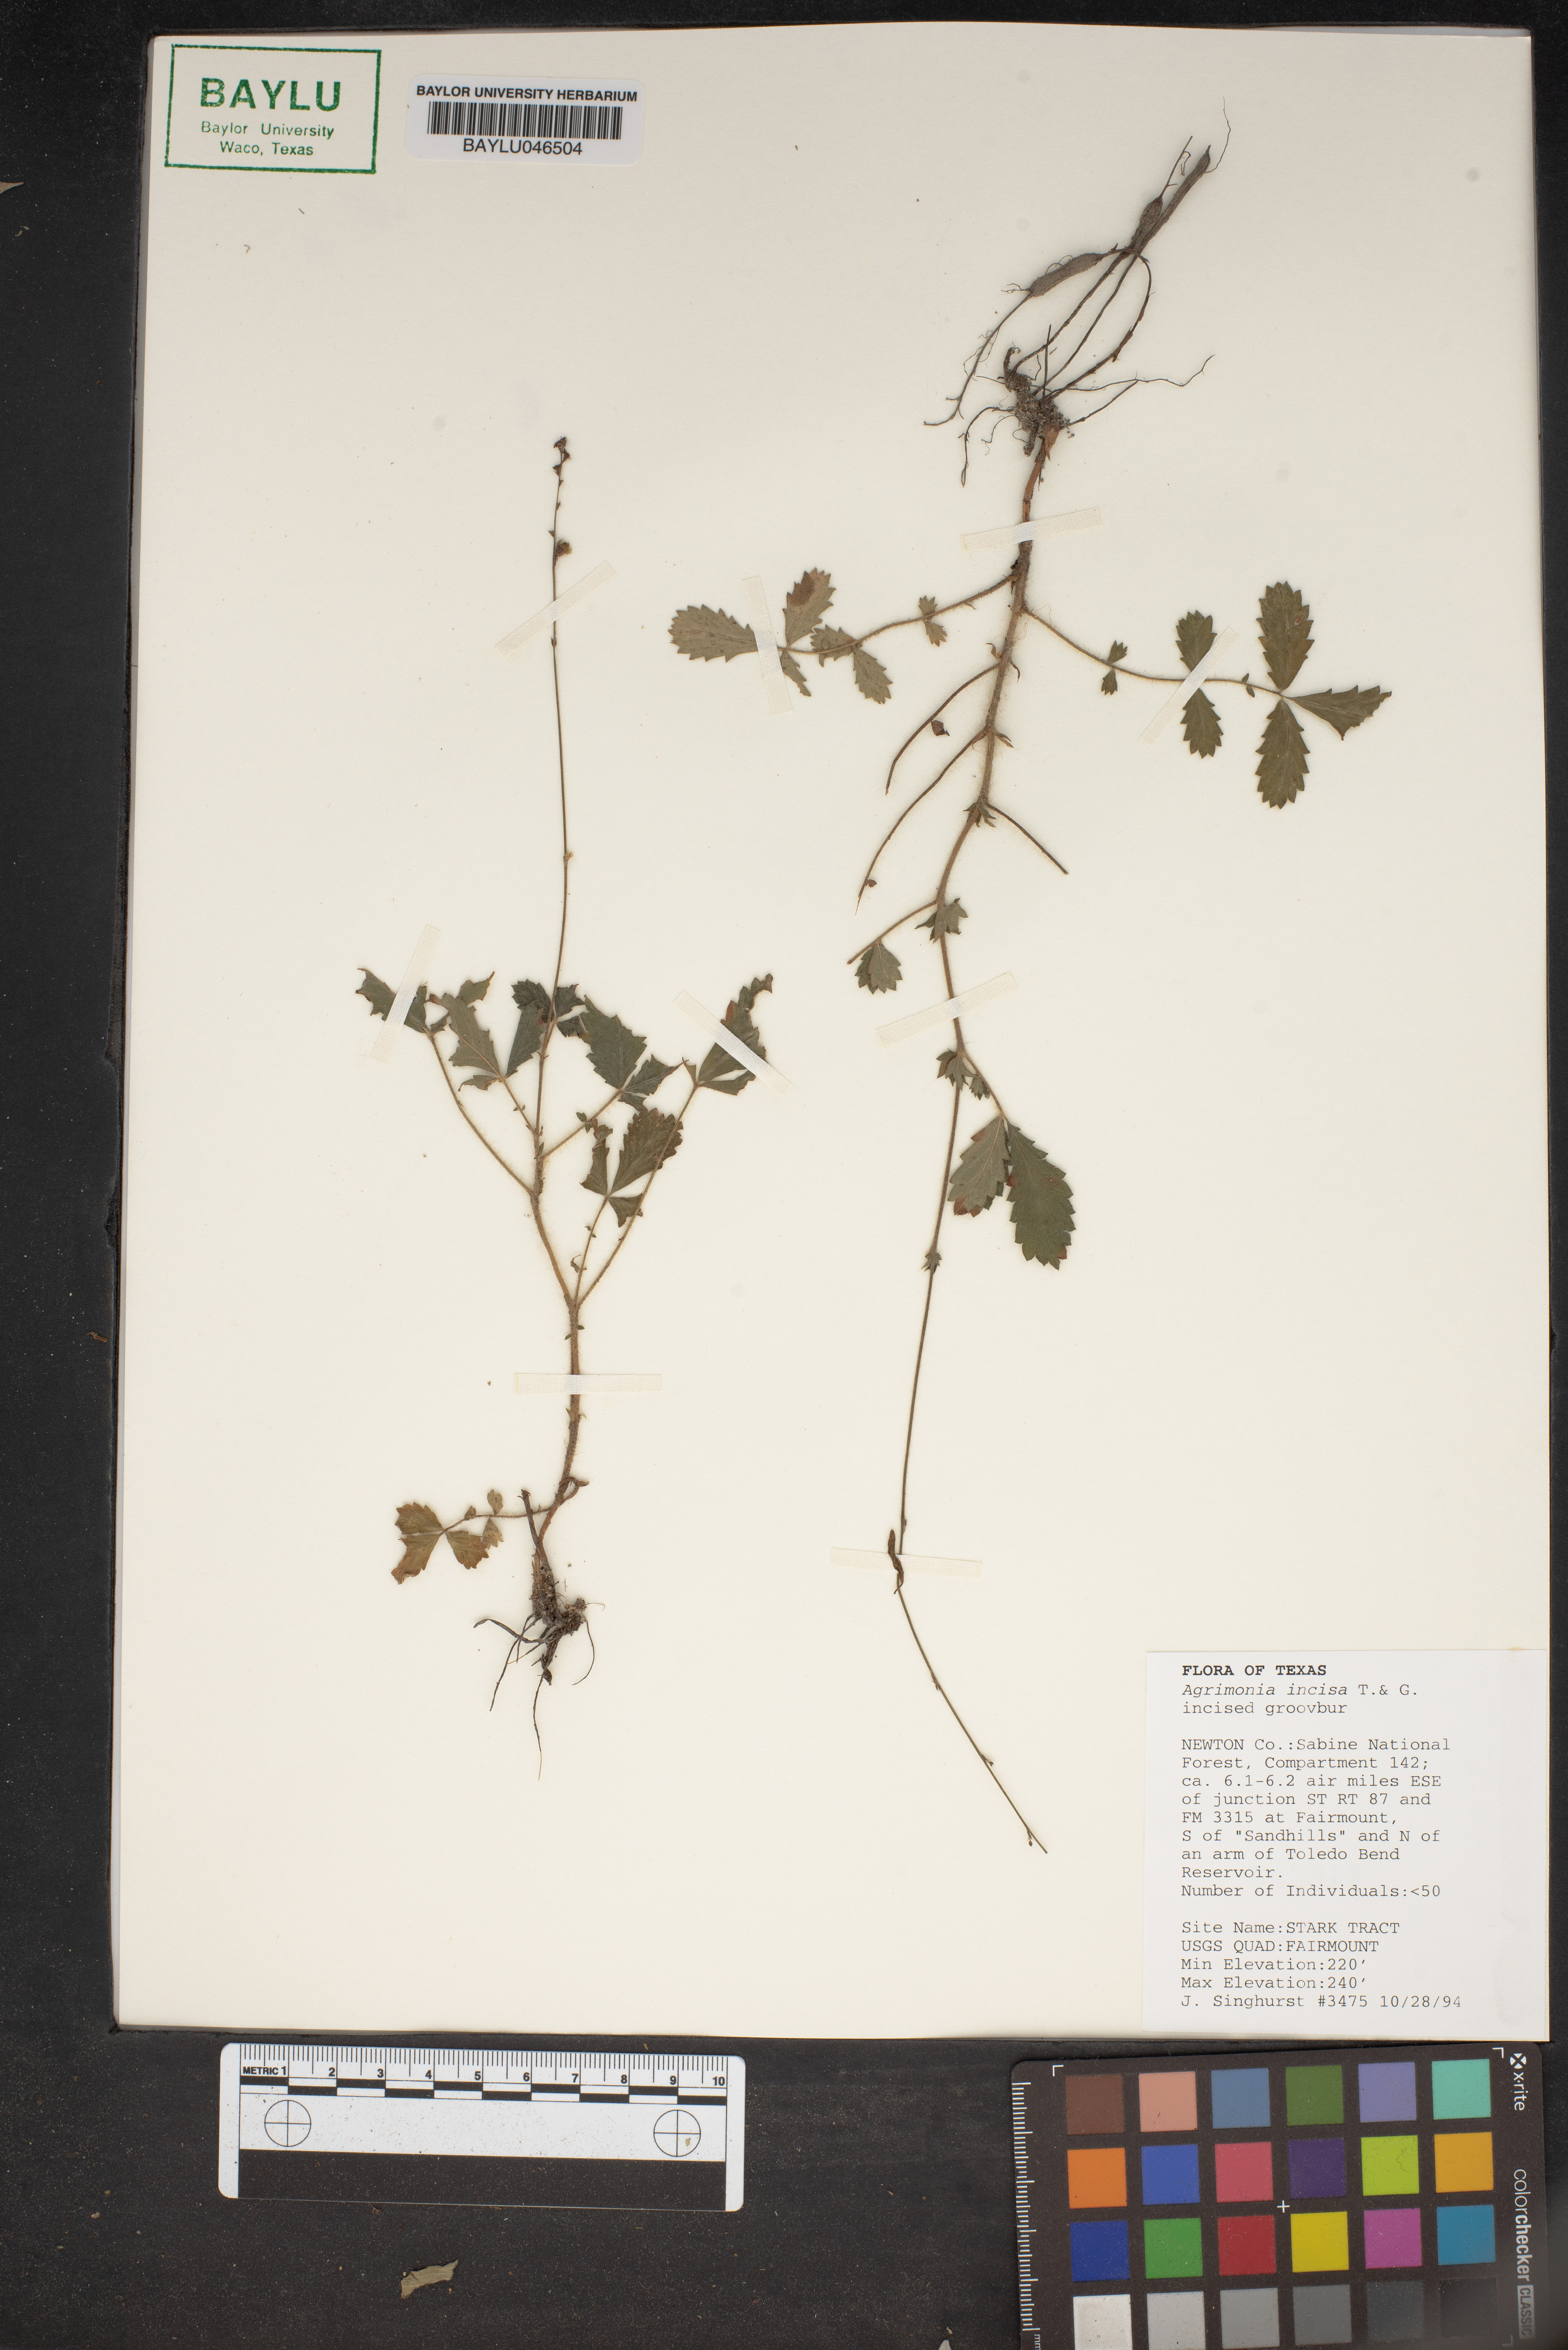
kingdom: Plantae
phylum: Tracheophyta
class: Magnoliopsida
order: Rosales
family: Rosaceae
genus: Agrimonia
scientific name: Agrimonia incisa
